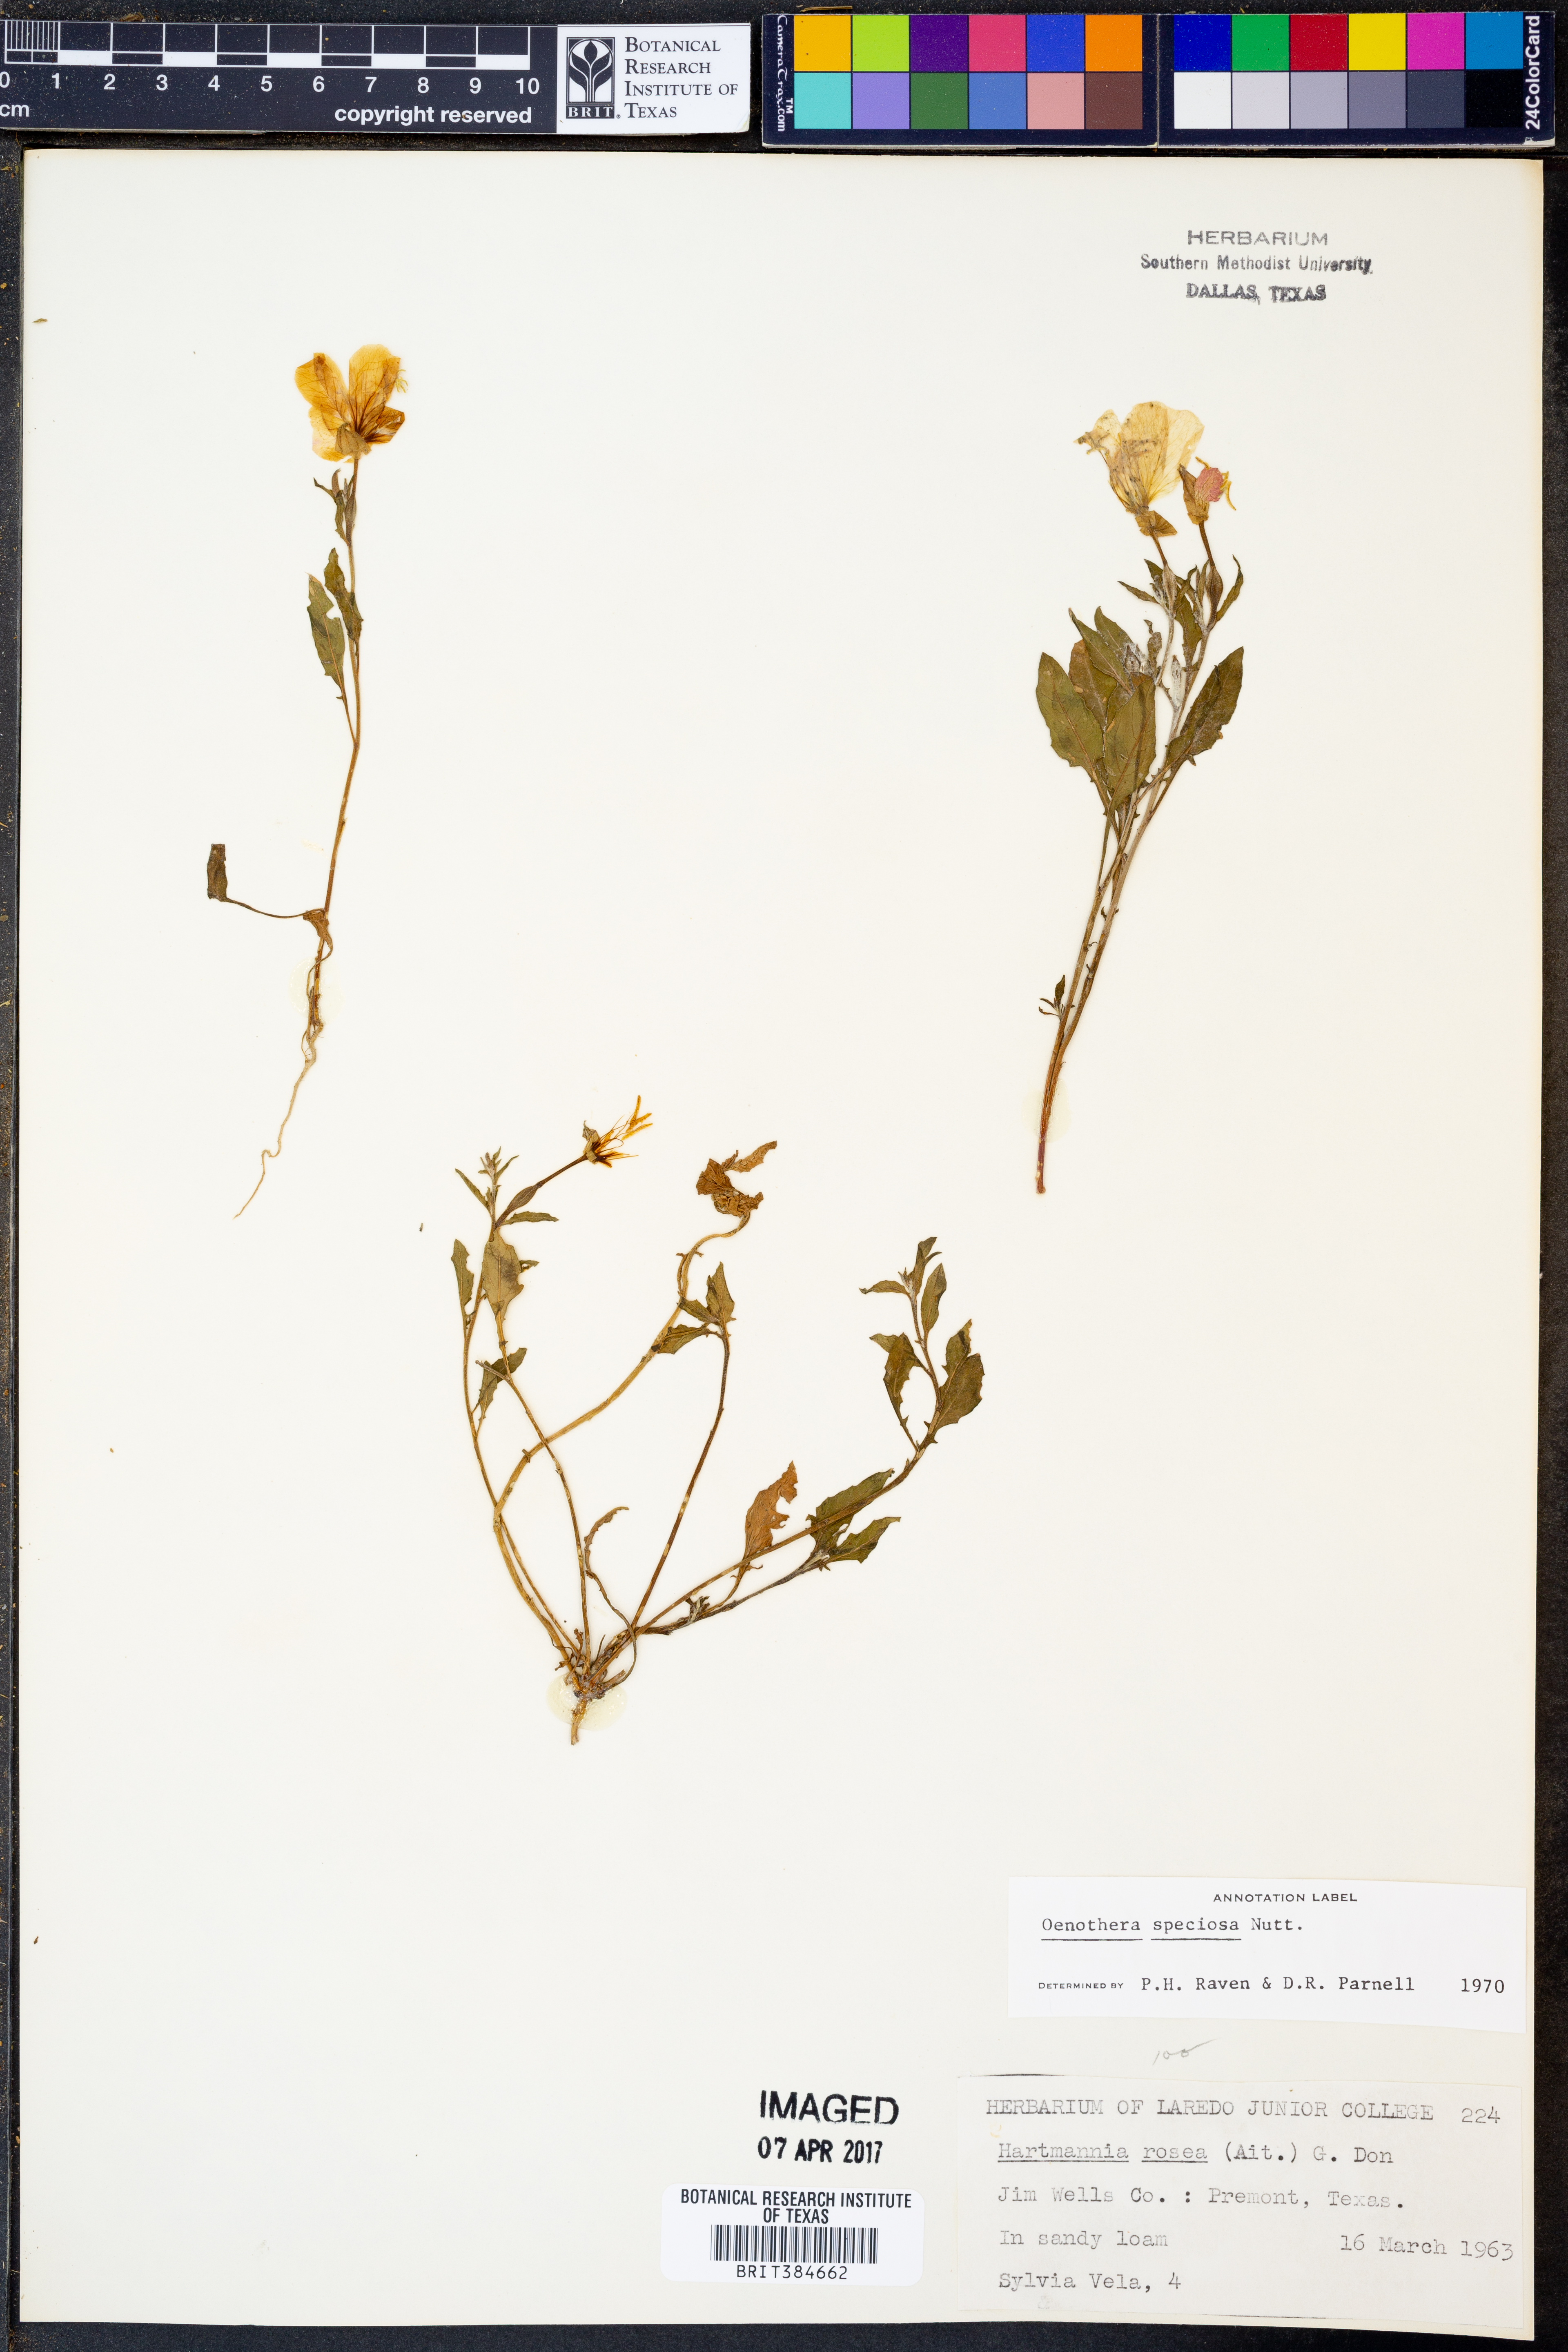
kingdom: Plantae
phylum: Tracheophyta
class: Magnoliopsida
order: Myrtales
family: Onagraceae
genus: Oenothera
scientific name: Oenothera speciosa
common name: White evening-primrose
